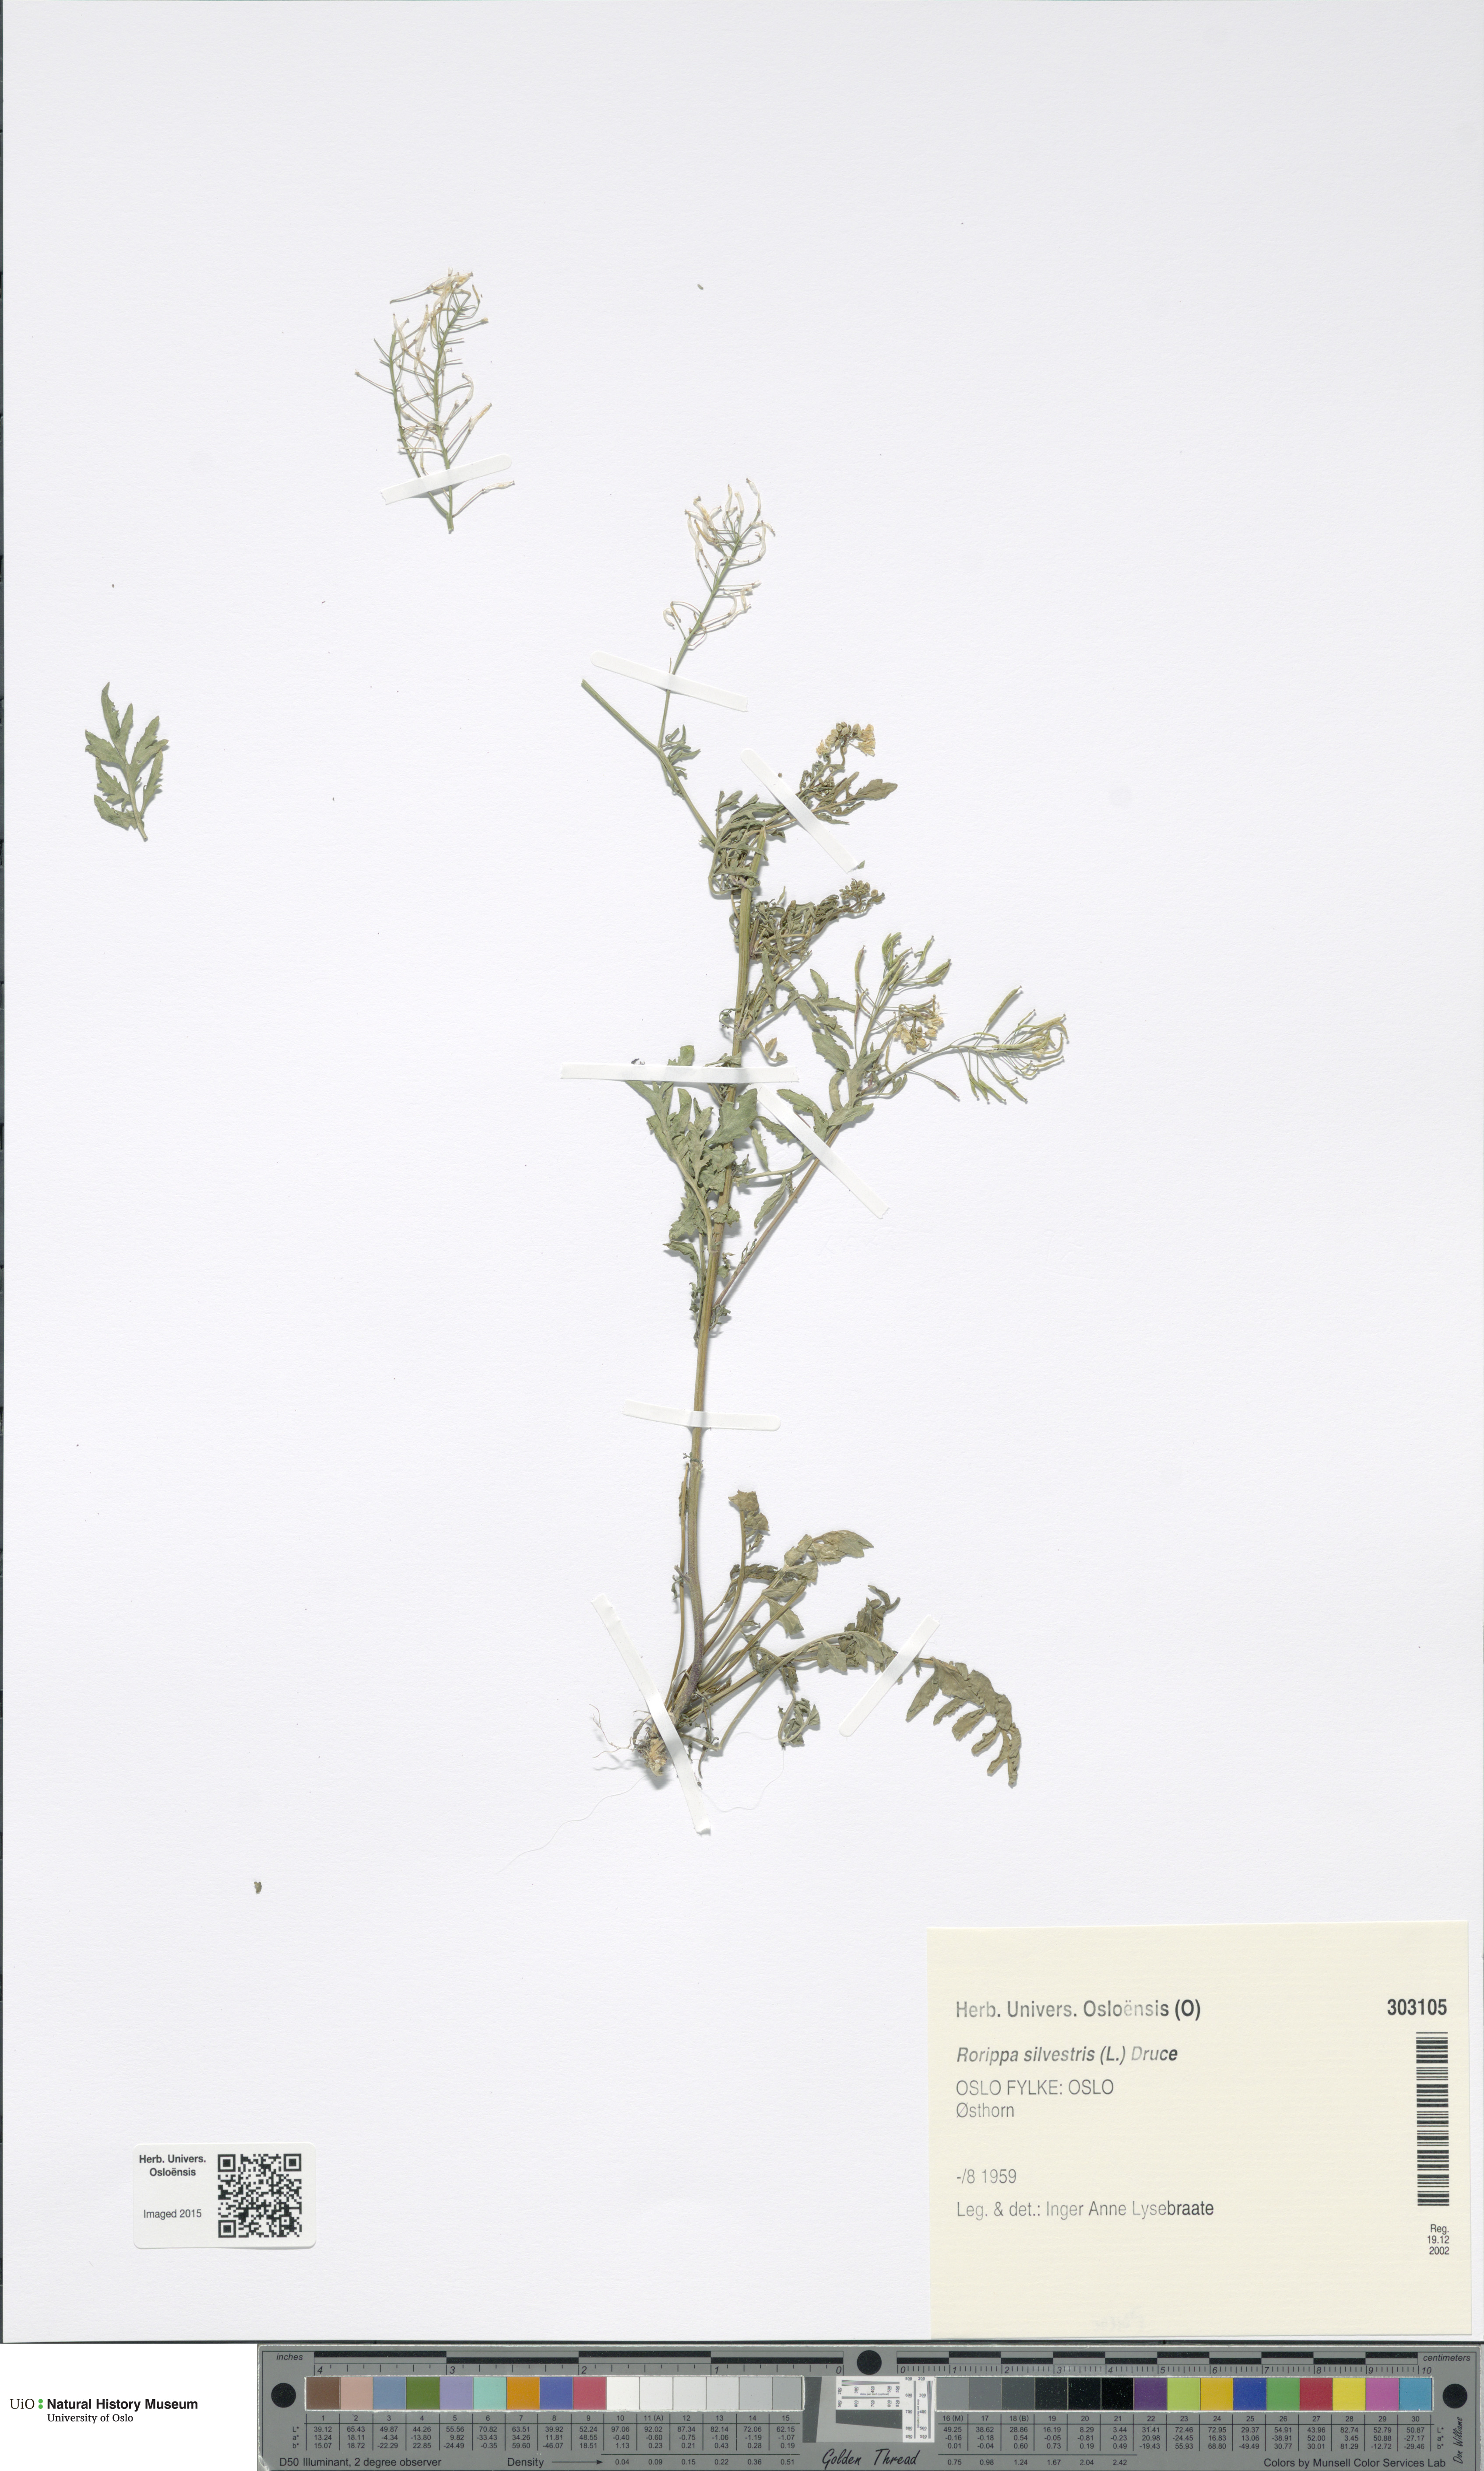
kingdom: Plantae
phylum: Tracheophyta
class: Magnoliopsida
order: Brassicales
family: Brassicaceae
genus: Rorippa
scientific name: Rorippa sylvestris
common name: Creeping yellowcress
